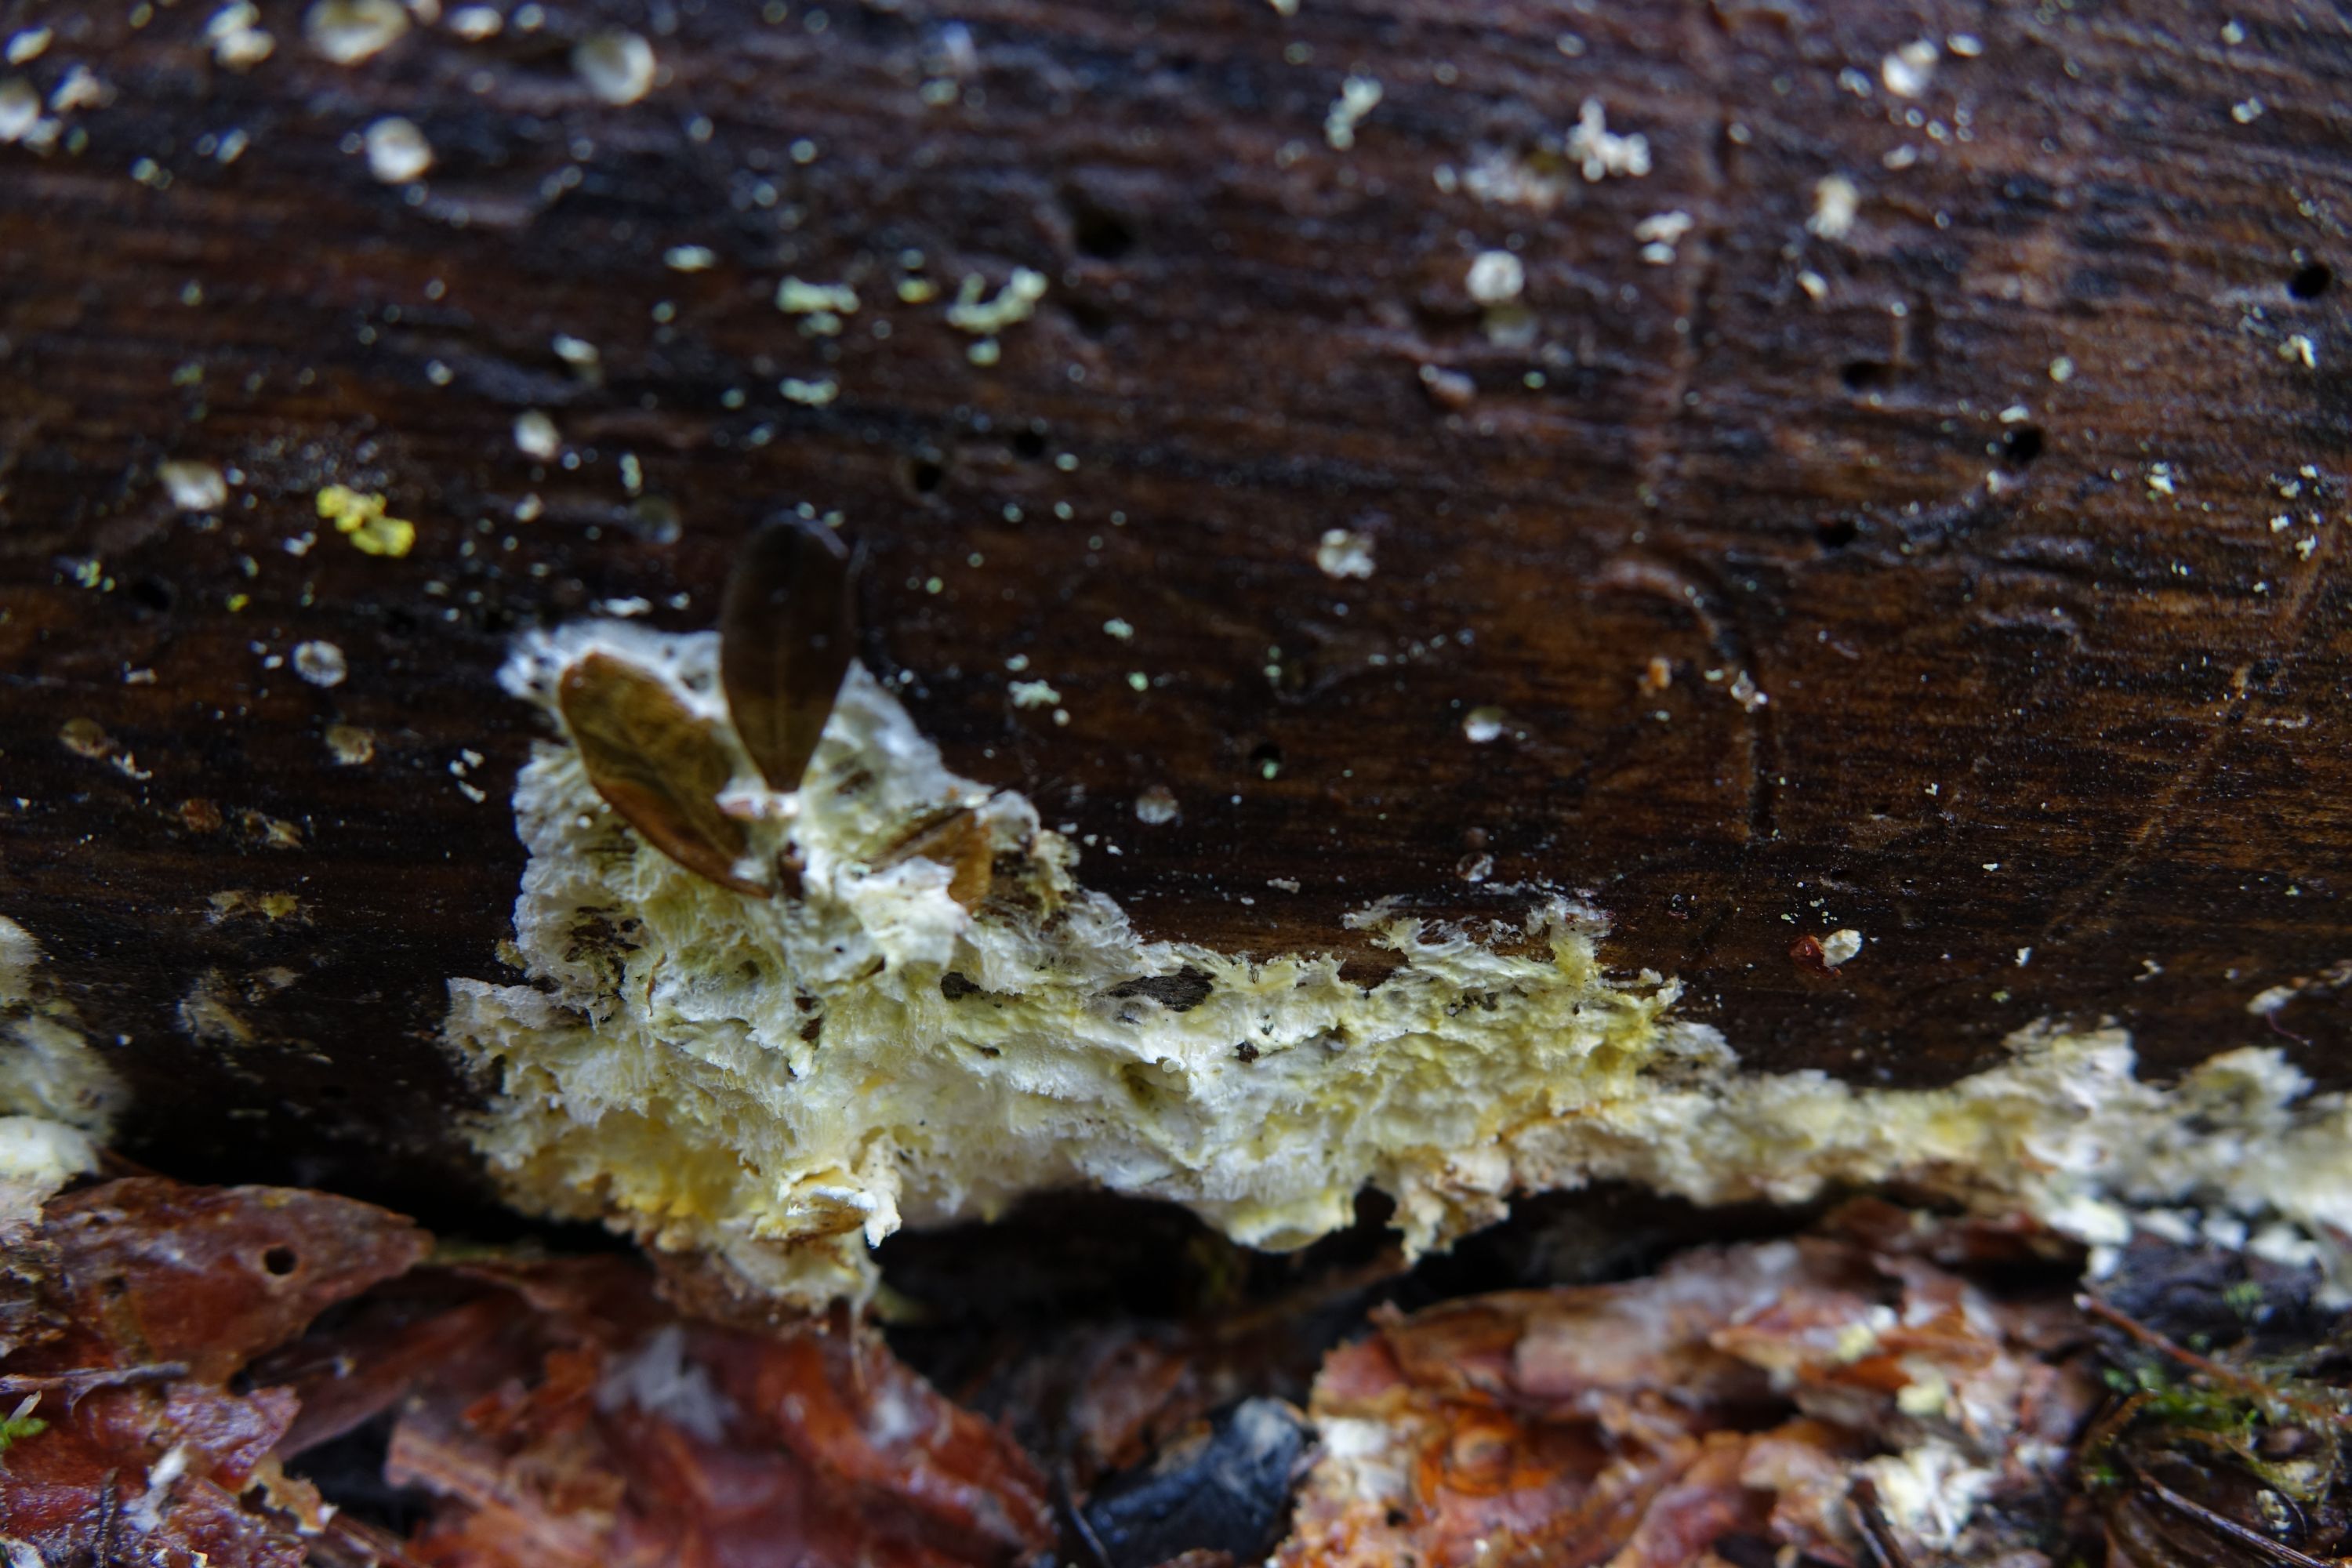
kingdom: Fungi
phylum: Basidiomycota
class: Agaricomycetes
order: Gloeophyllales
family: Gloeophyllaceae
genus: Chaetodermella
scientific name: Chaetodermella luna
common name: Crescent crust
